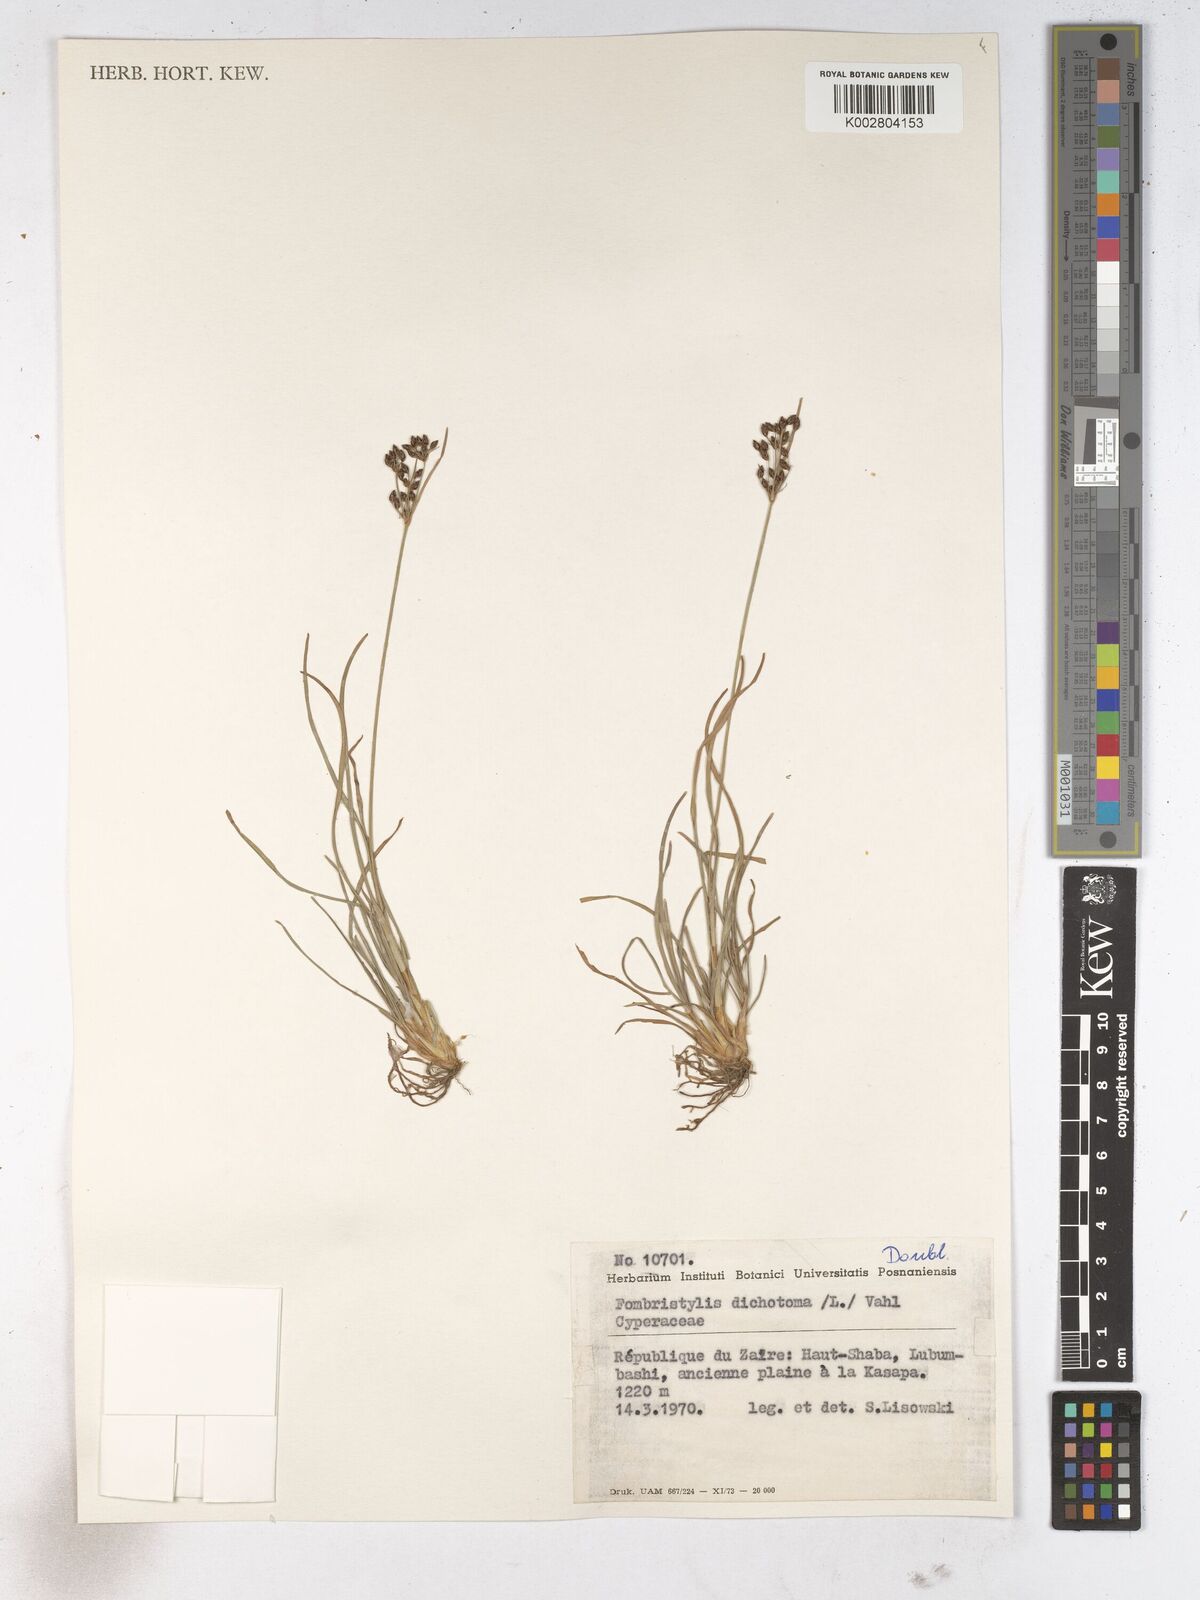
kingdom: Plantae
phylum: Tracheophyta
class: Liliopsida
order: Poales
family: Cyperaceae
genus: Fimbristylis
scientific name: Fimbristylis dichotoma
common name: Forked fimbry
